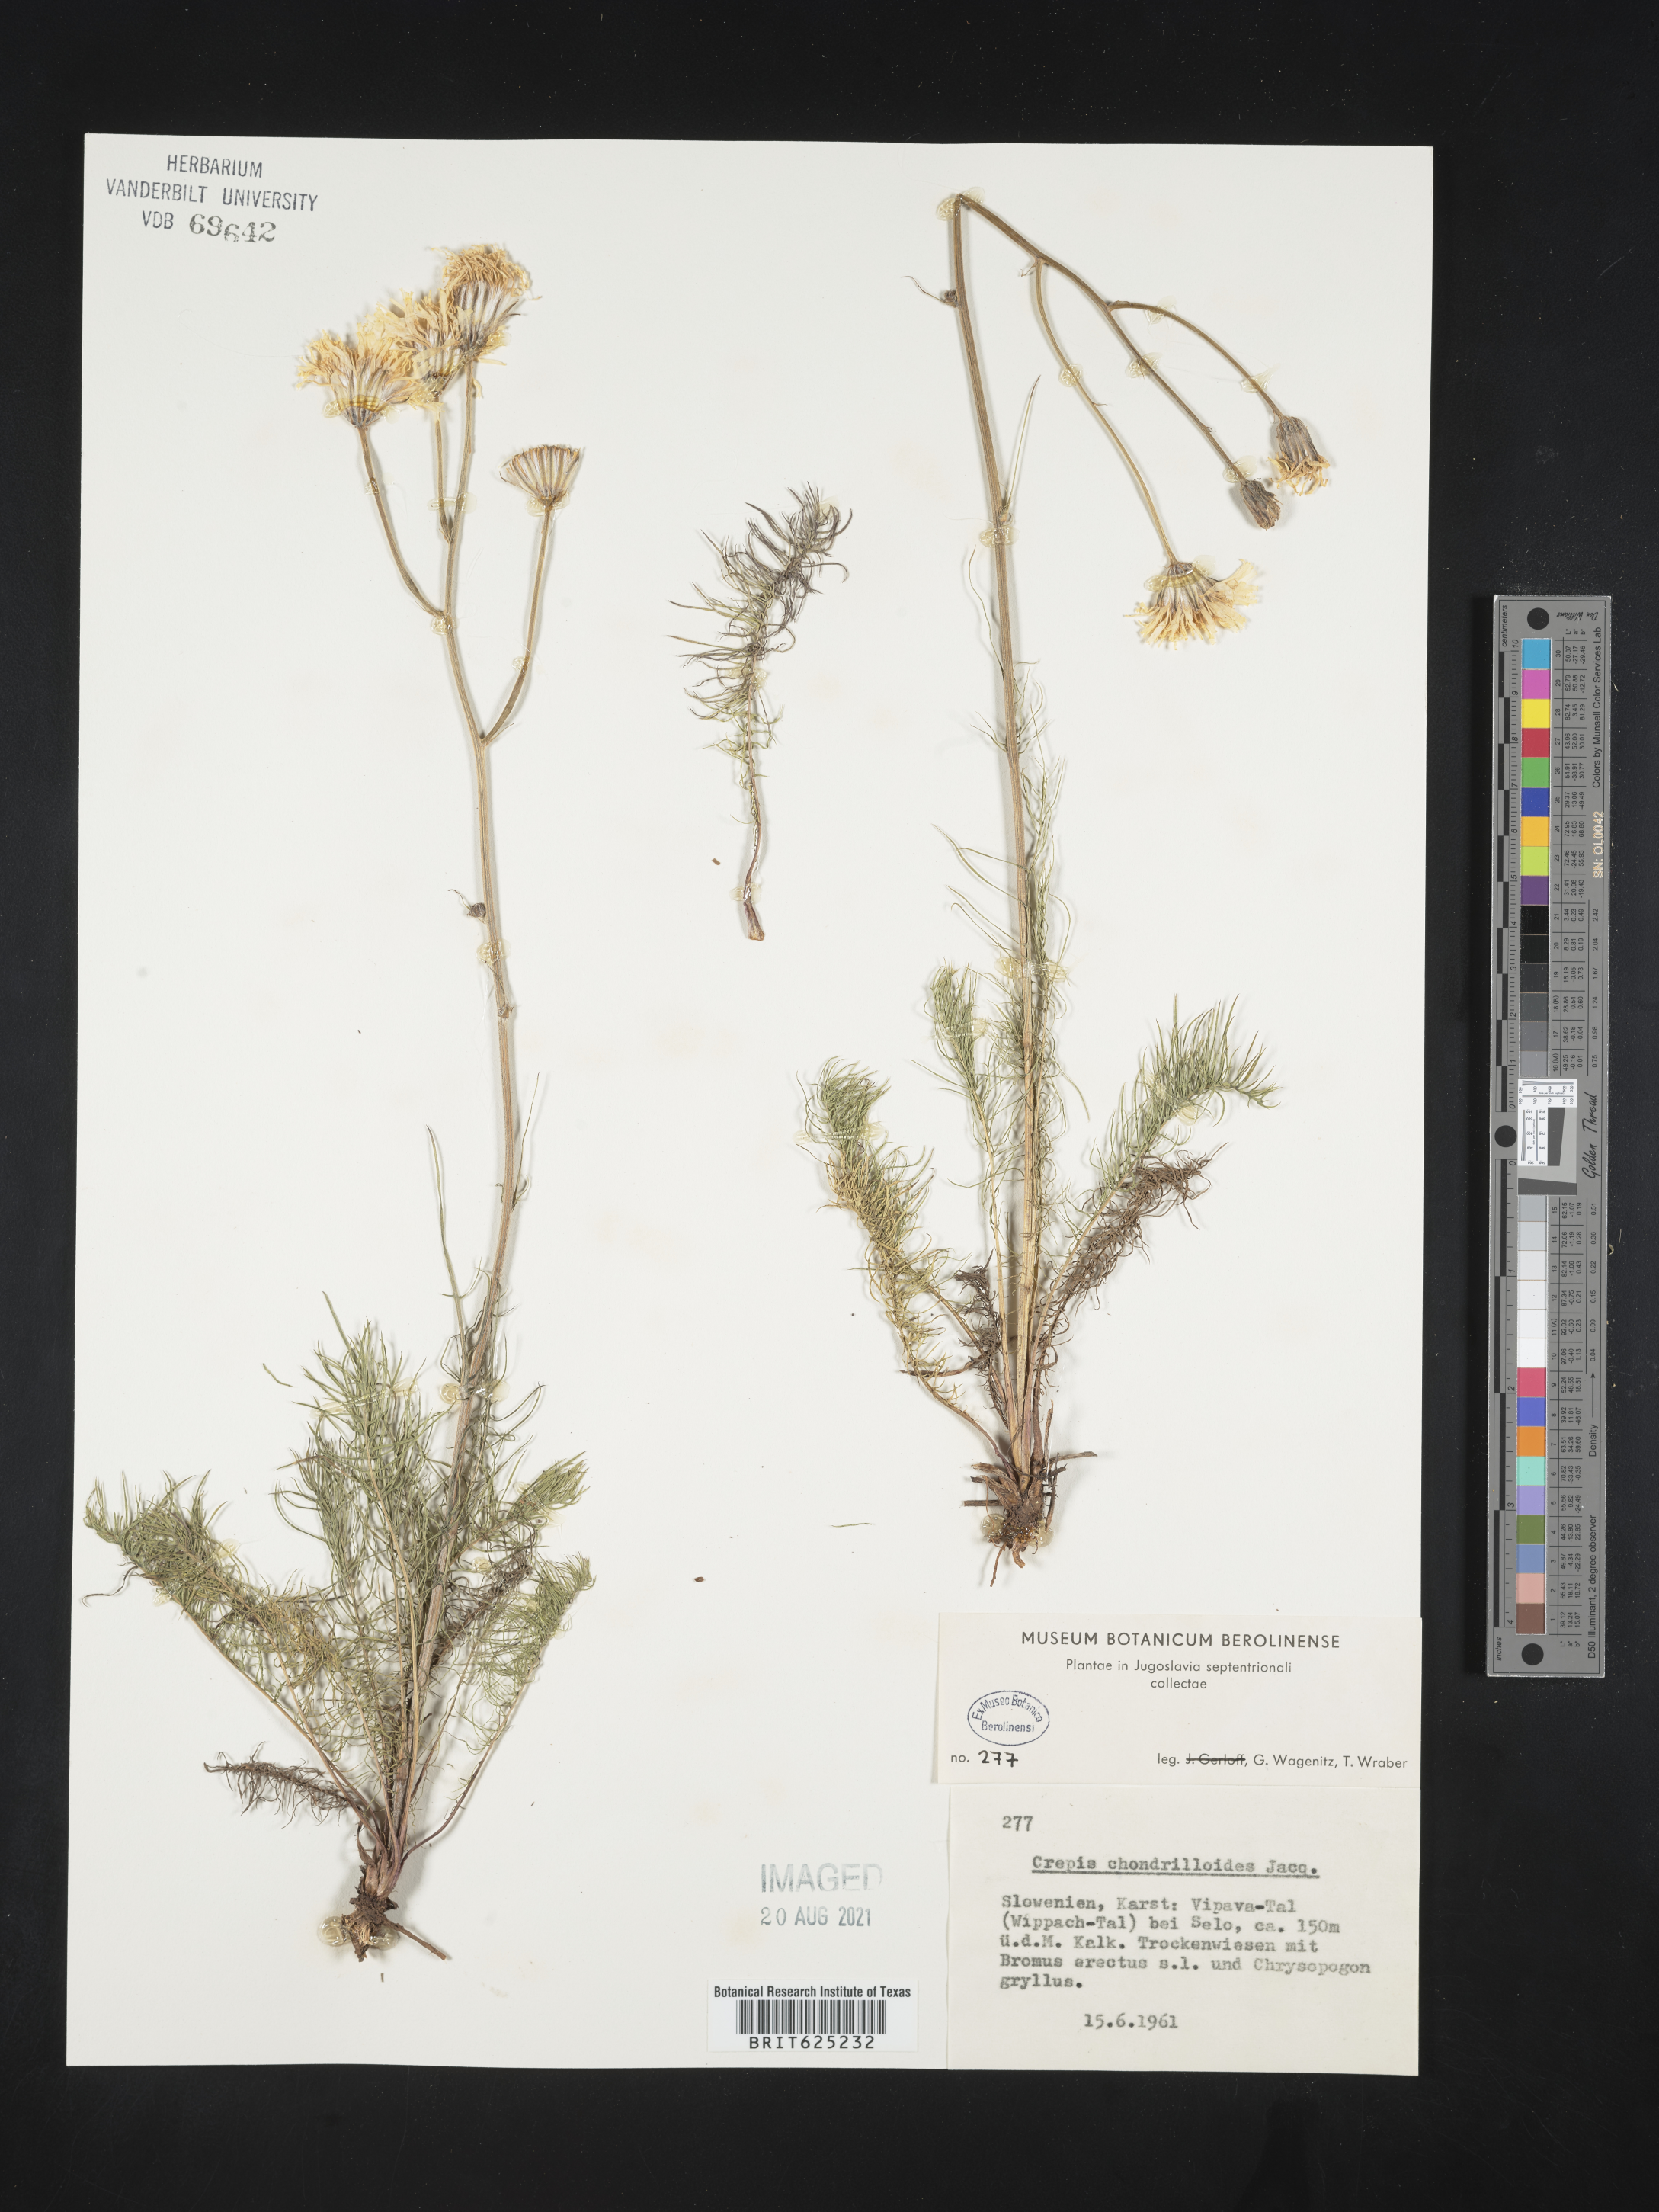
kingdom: Plantae
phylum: Tracheophyta
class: Magnoliopsida
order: Asterales
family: Asteraceae
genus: Crepis
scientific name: Crepis chondrilloides
